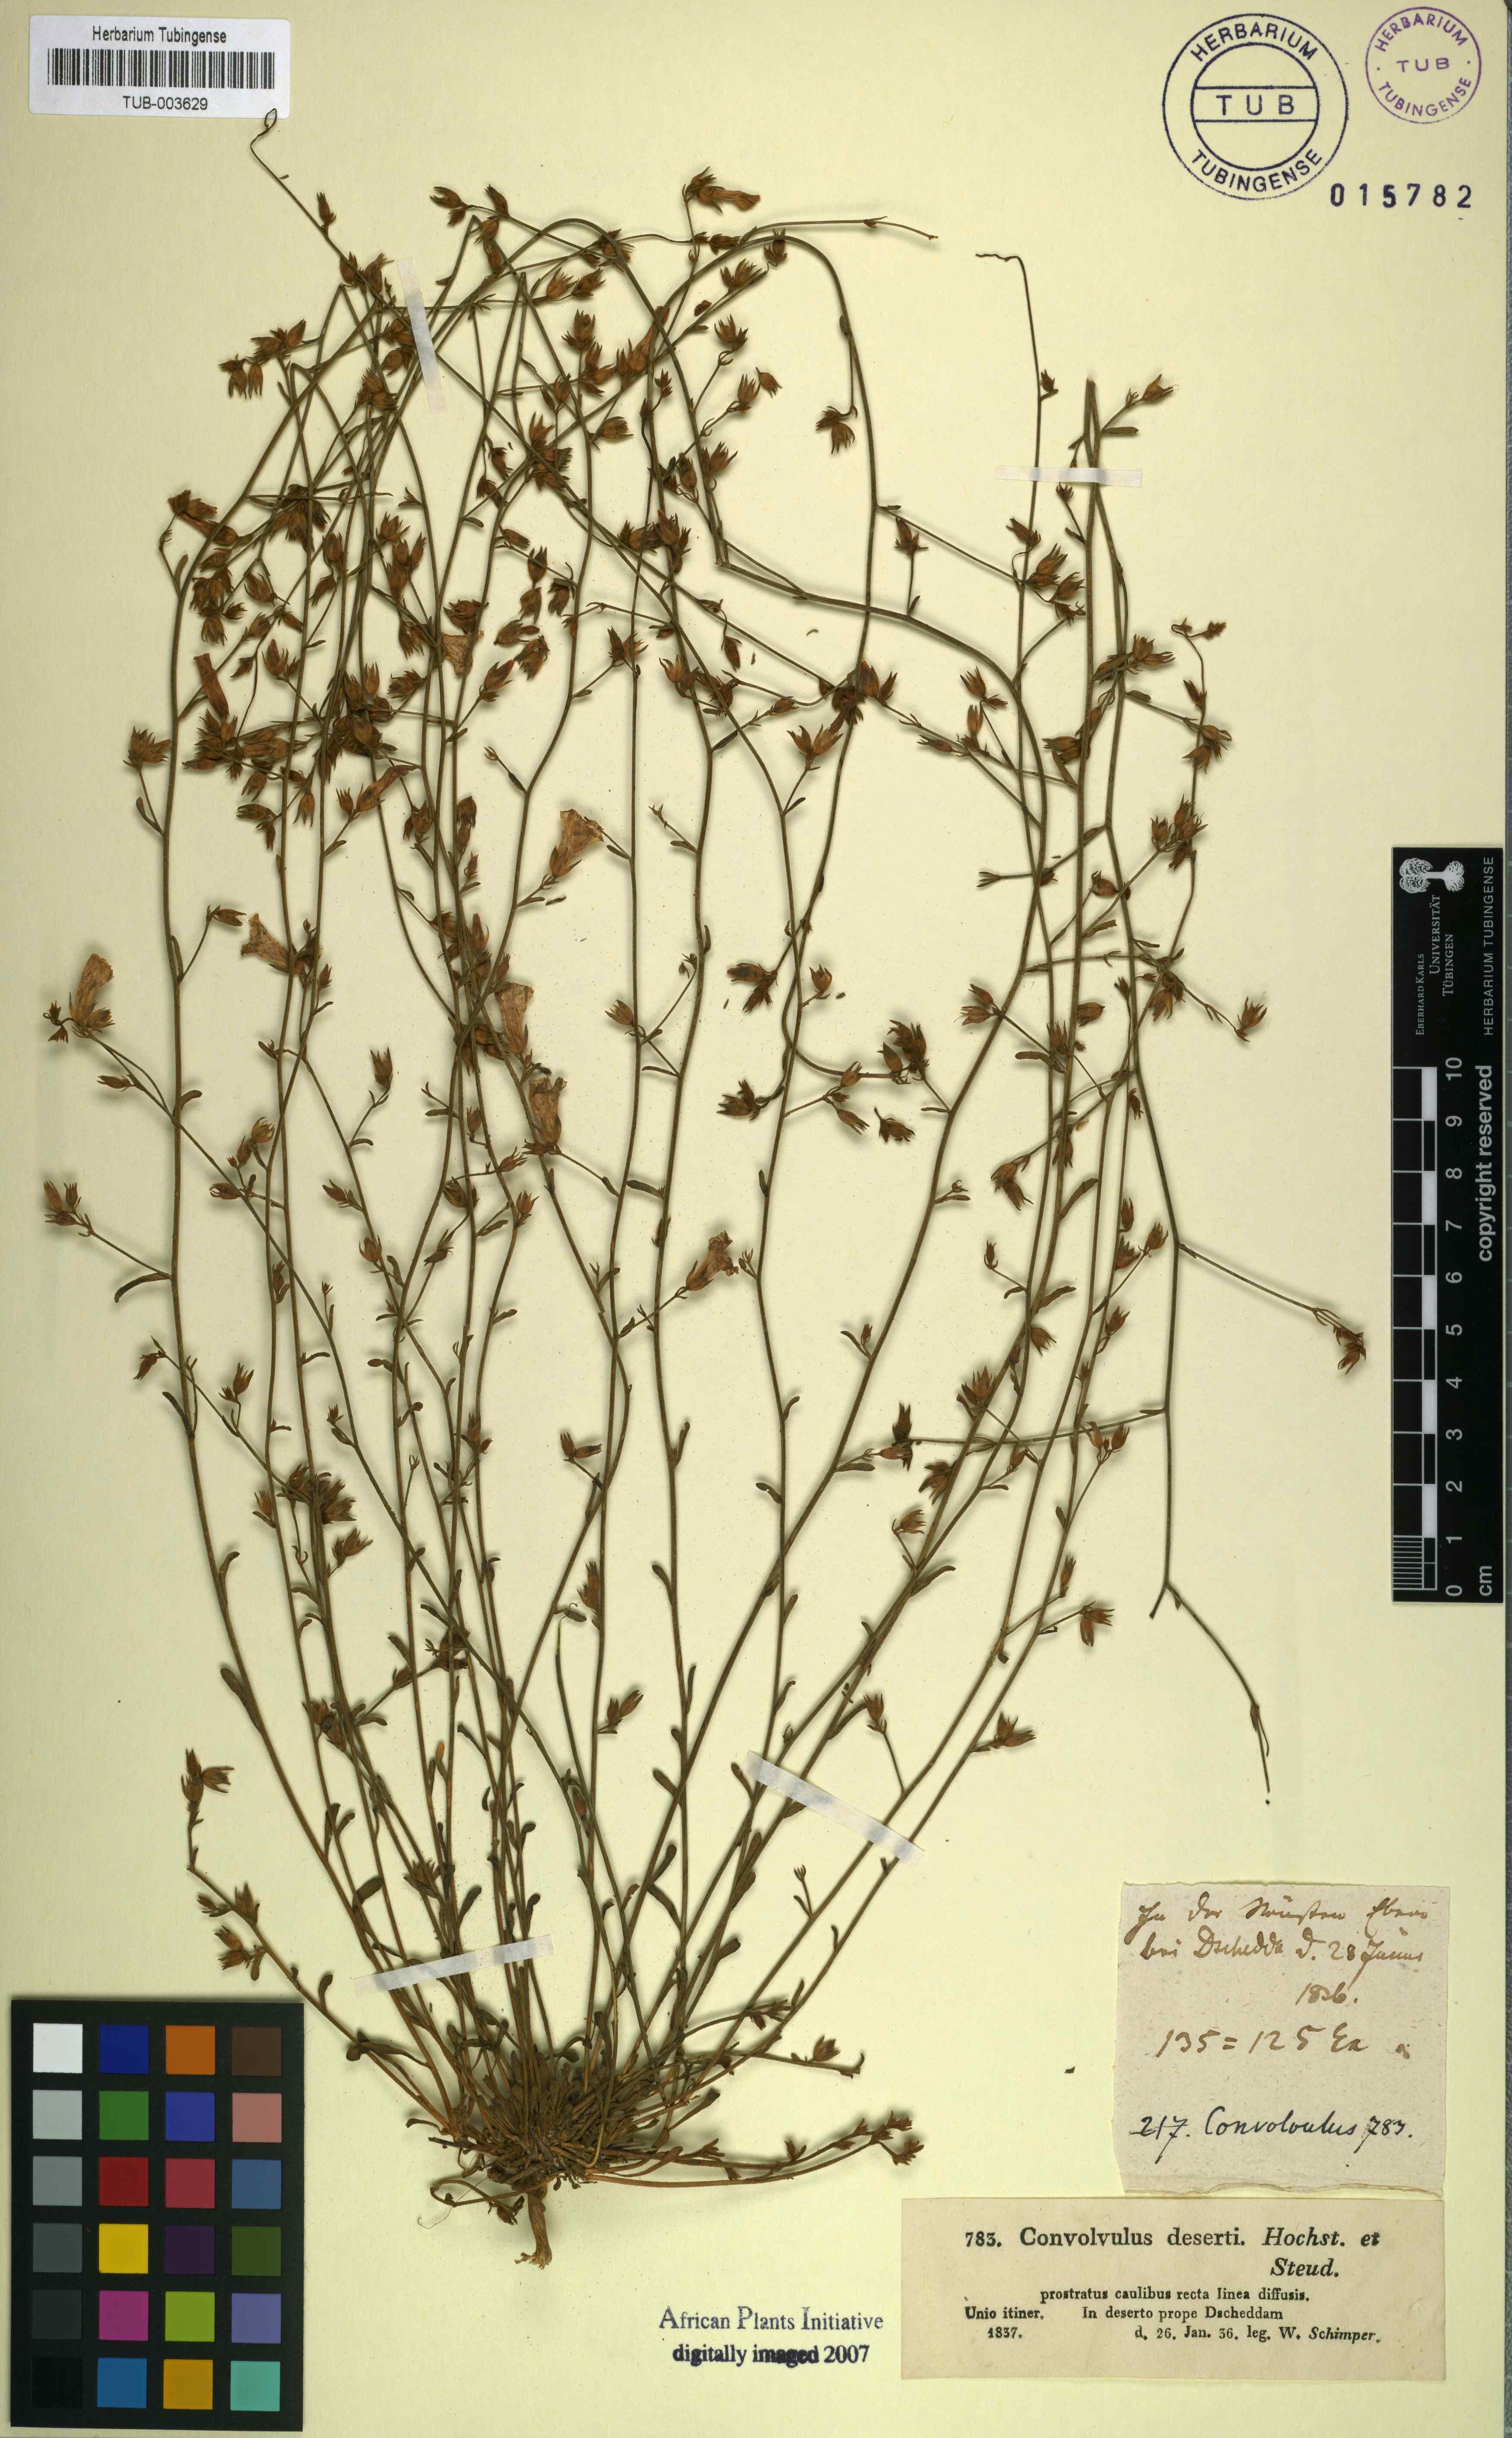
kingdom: Plantae
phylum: Tracheophyta
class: Magnoliopsida
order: Solanales
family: Convolvulaceae
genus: Convolvulus
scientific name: Convolvulus prostratus
